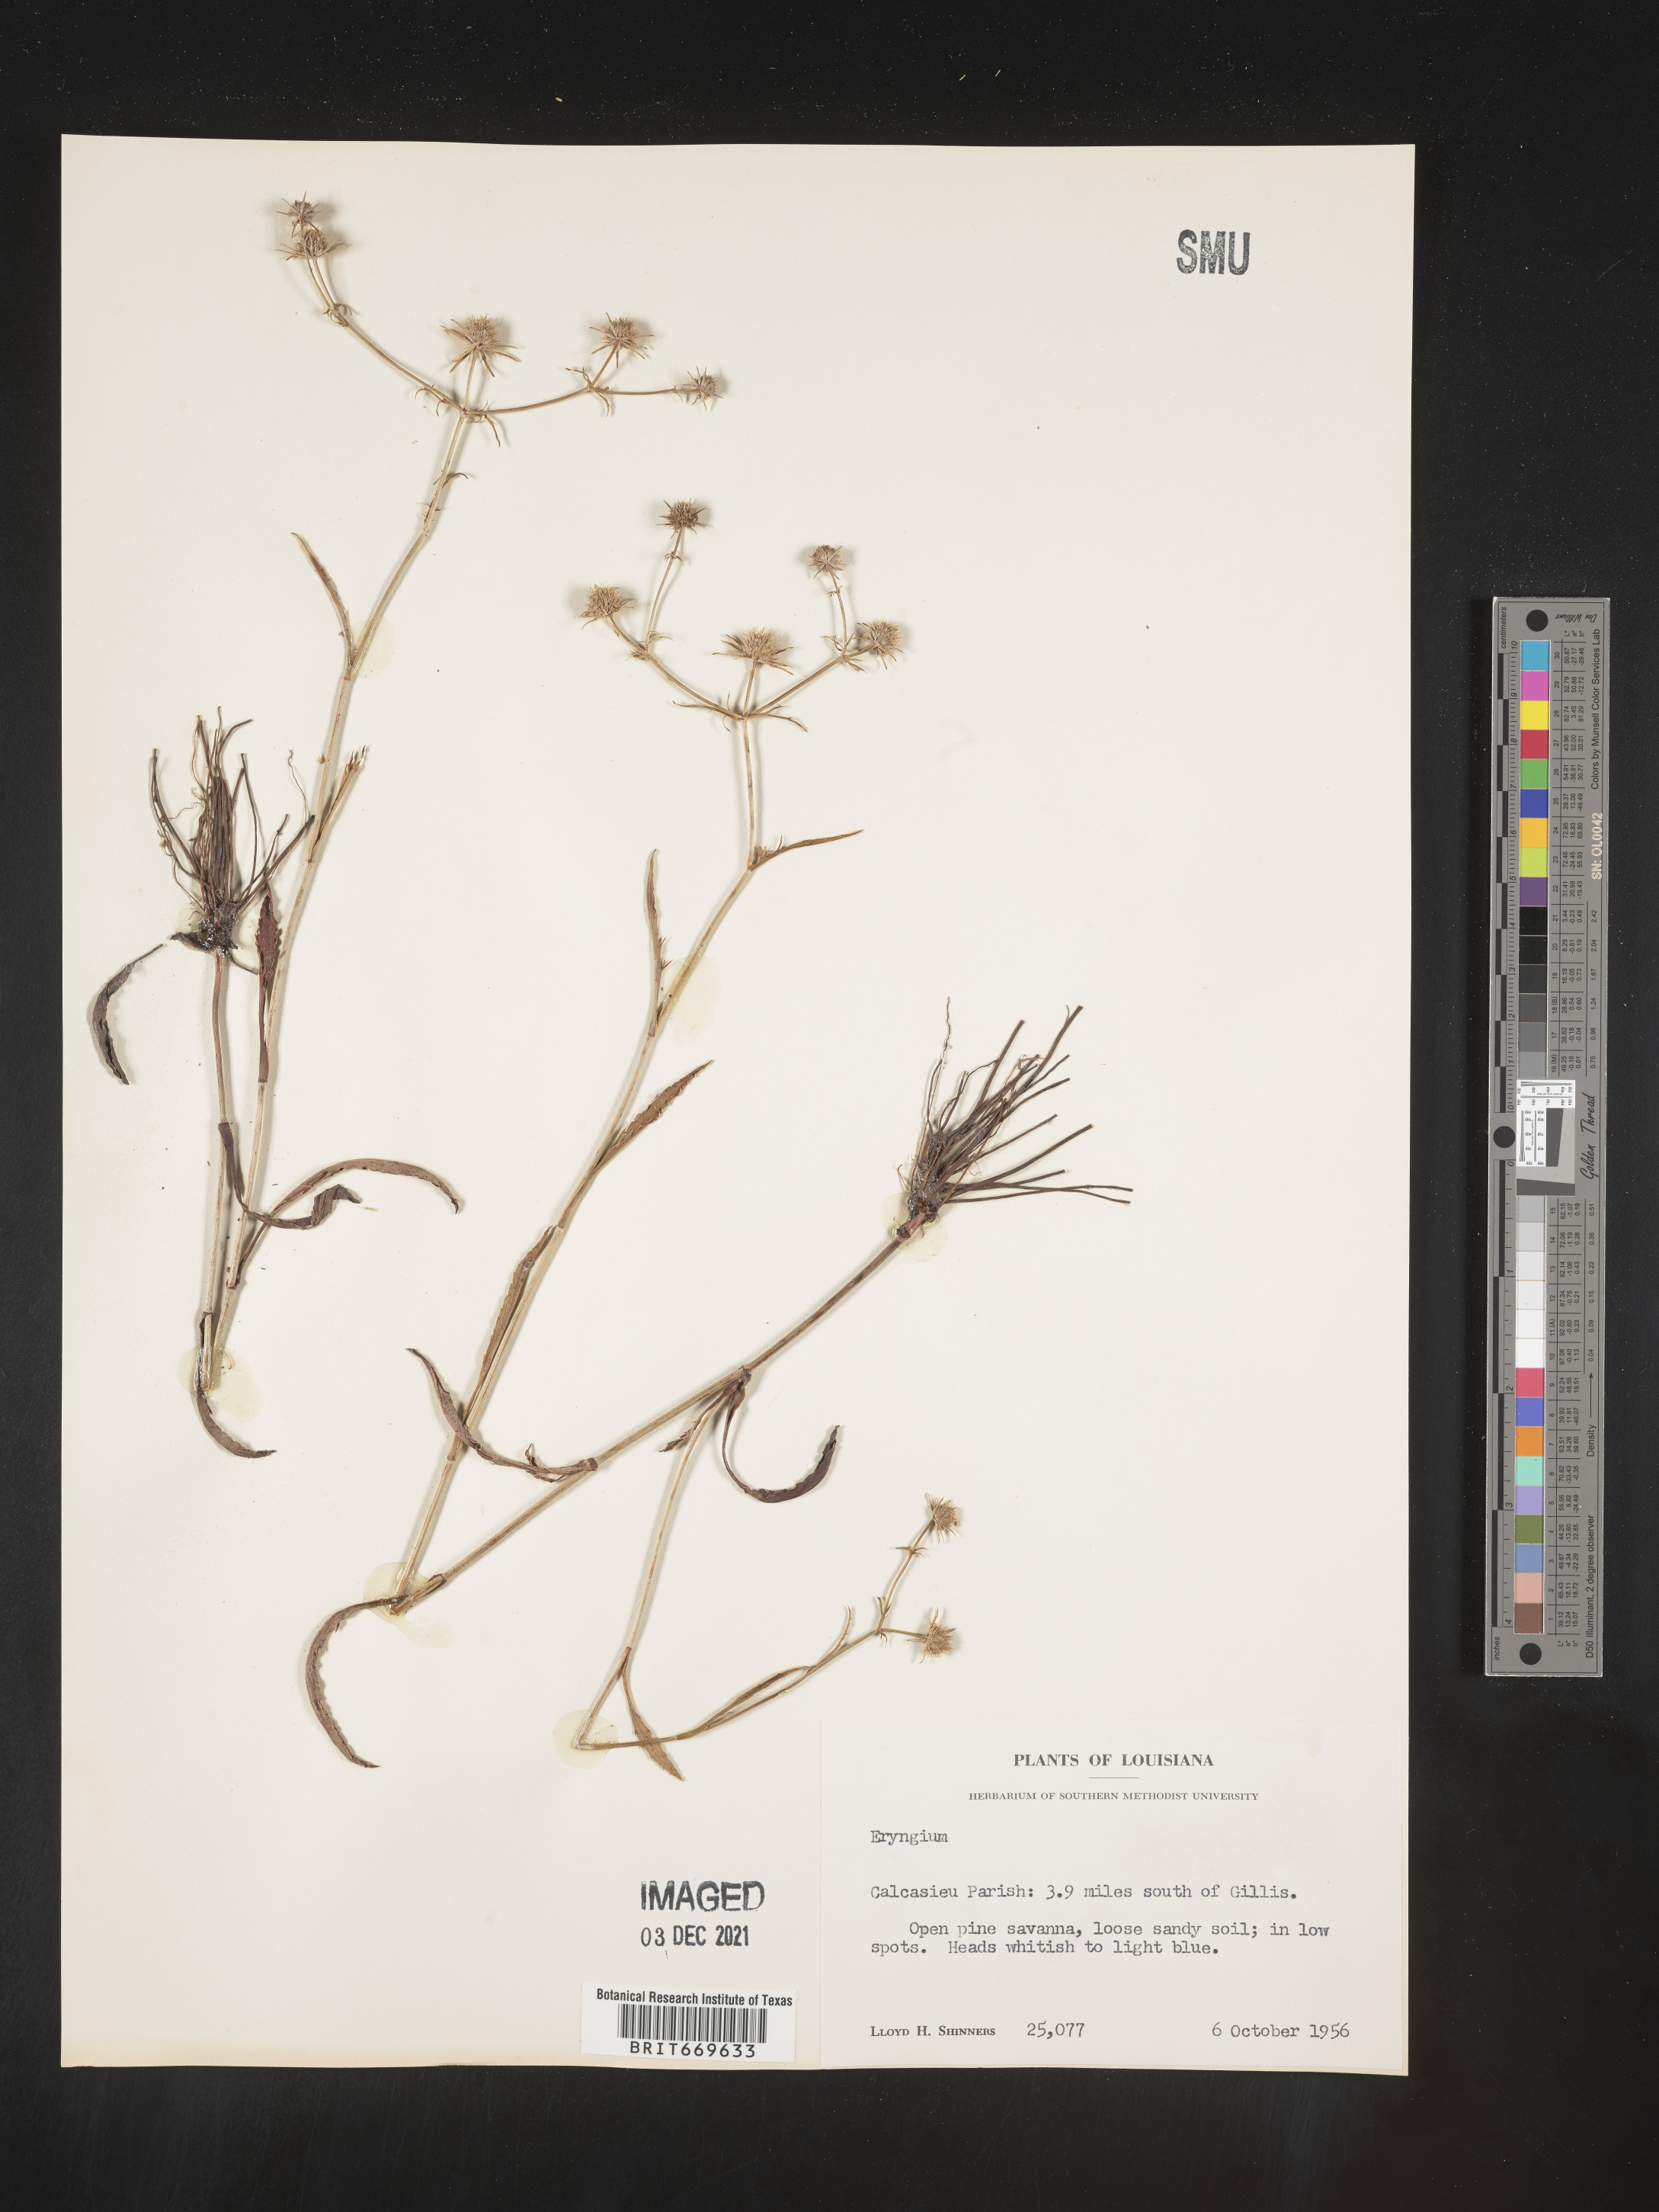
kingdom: Plantae
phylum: Tracheophyta
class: Magnoliopsida
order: Apiales
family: Apiaceae
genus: Eryngium
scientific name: Eryngium
